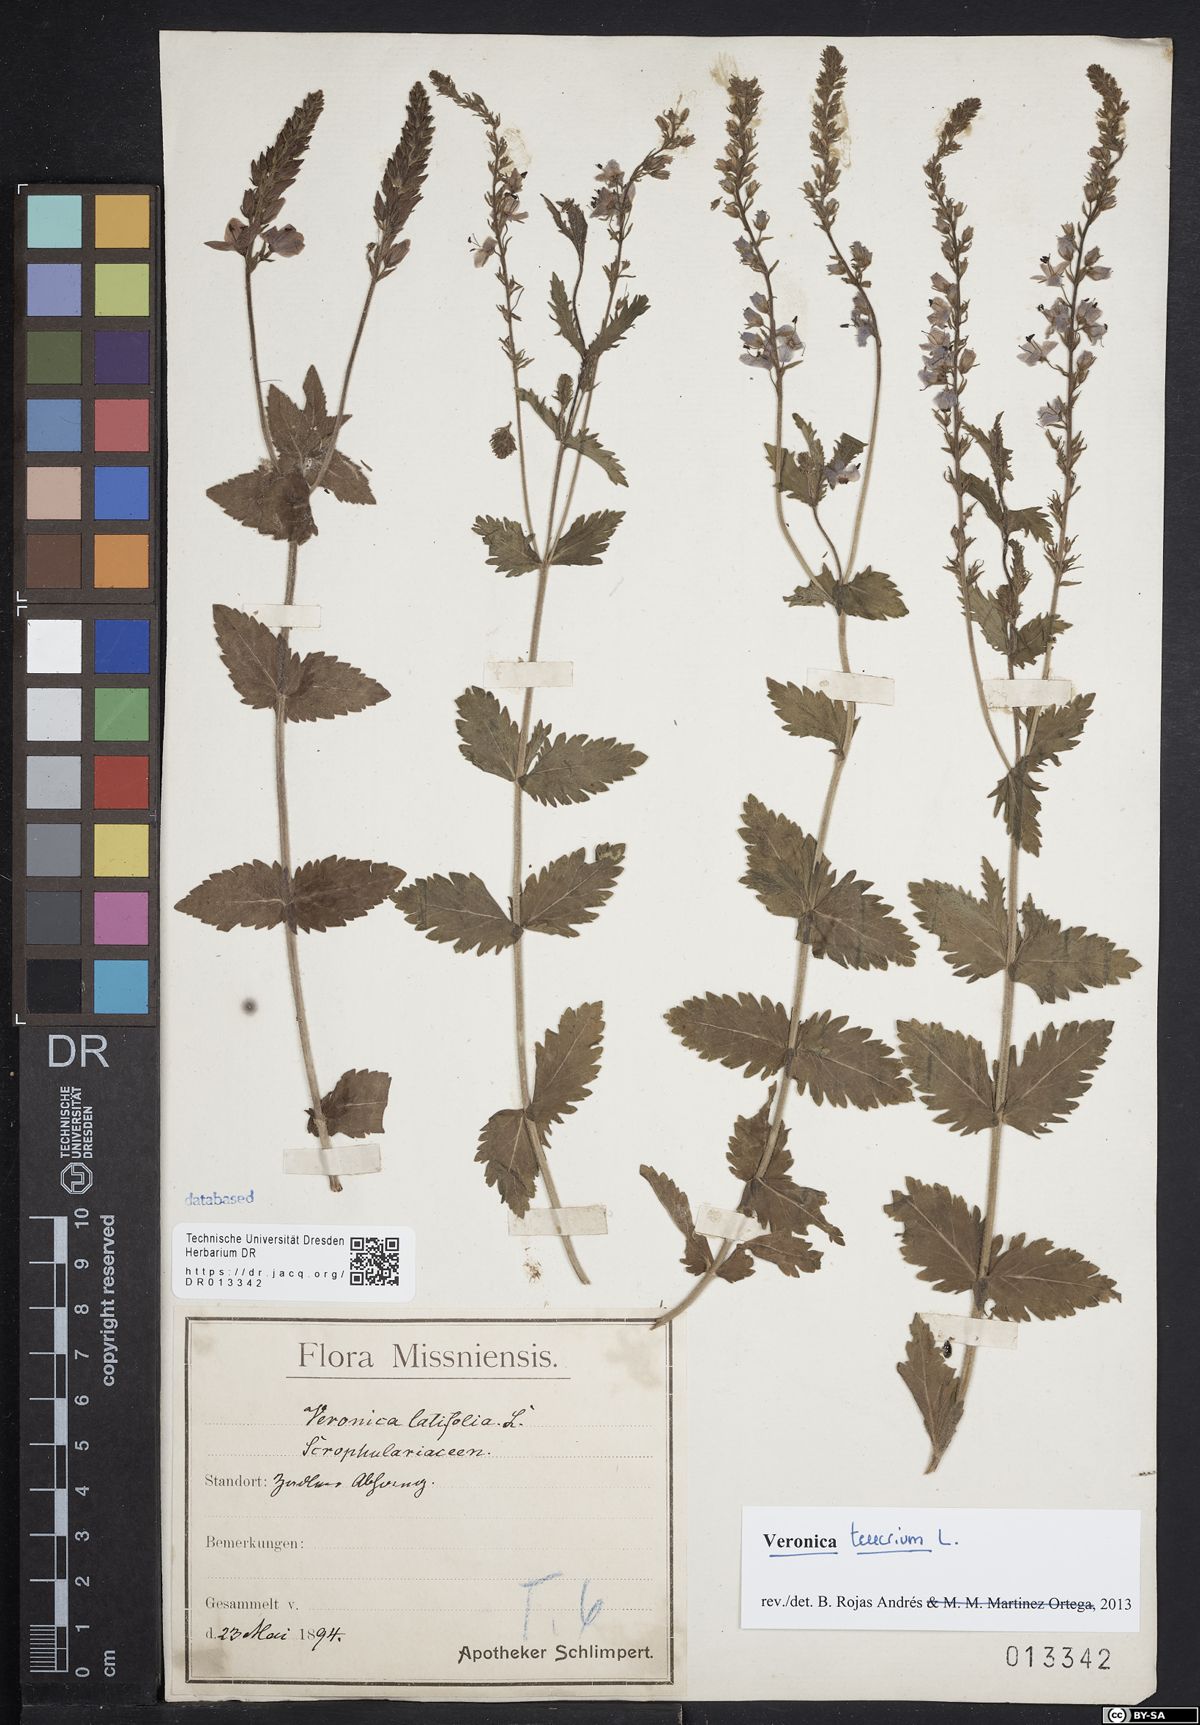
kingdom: Plantae
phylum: Tracheophyta
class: Magnoliopsida
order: Lamiales
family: Plantaginaceae
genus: Veronica
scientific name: Veronica teucrium
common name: Large speedwell
